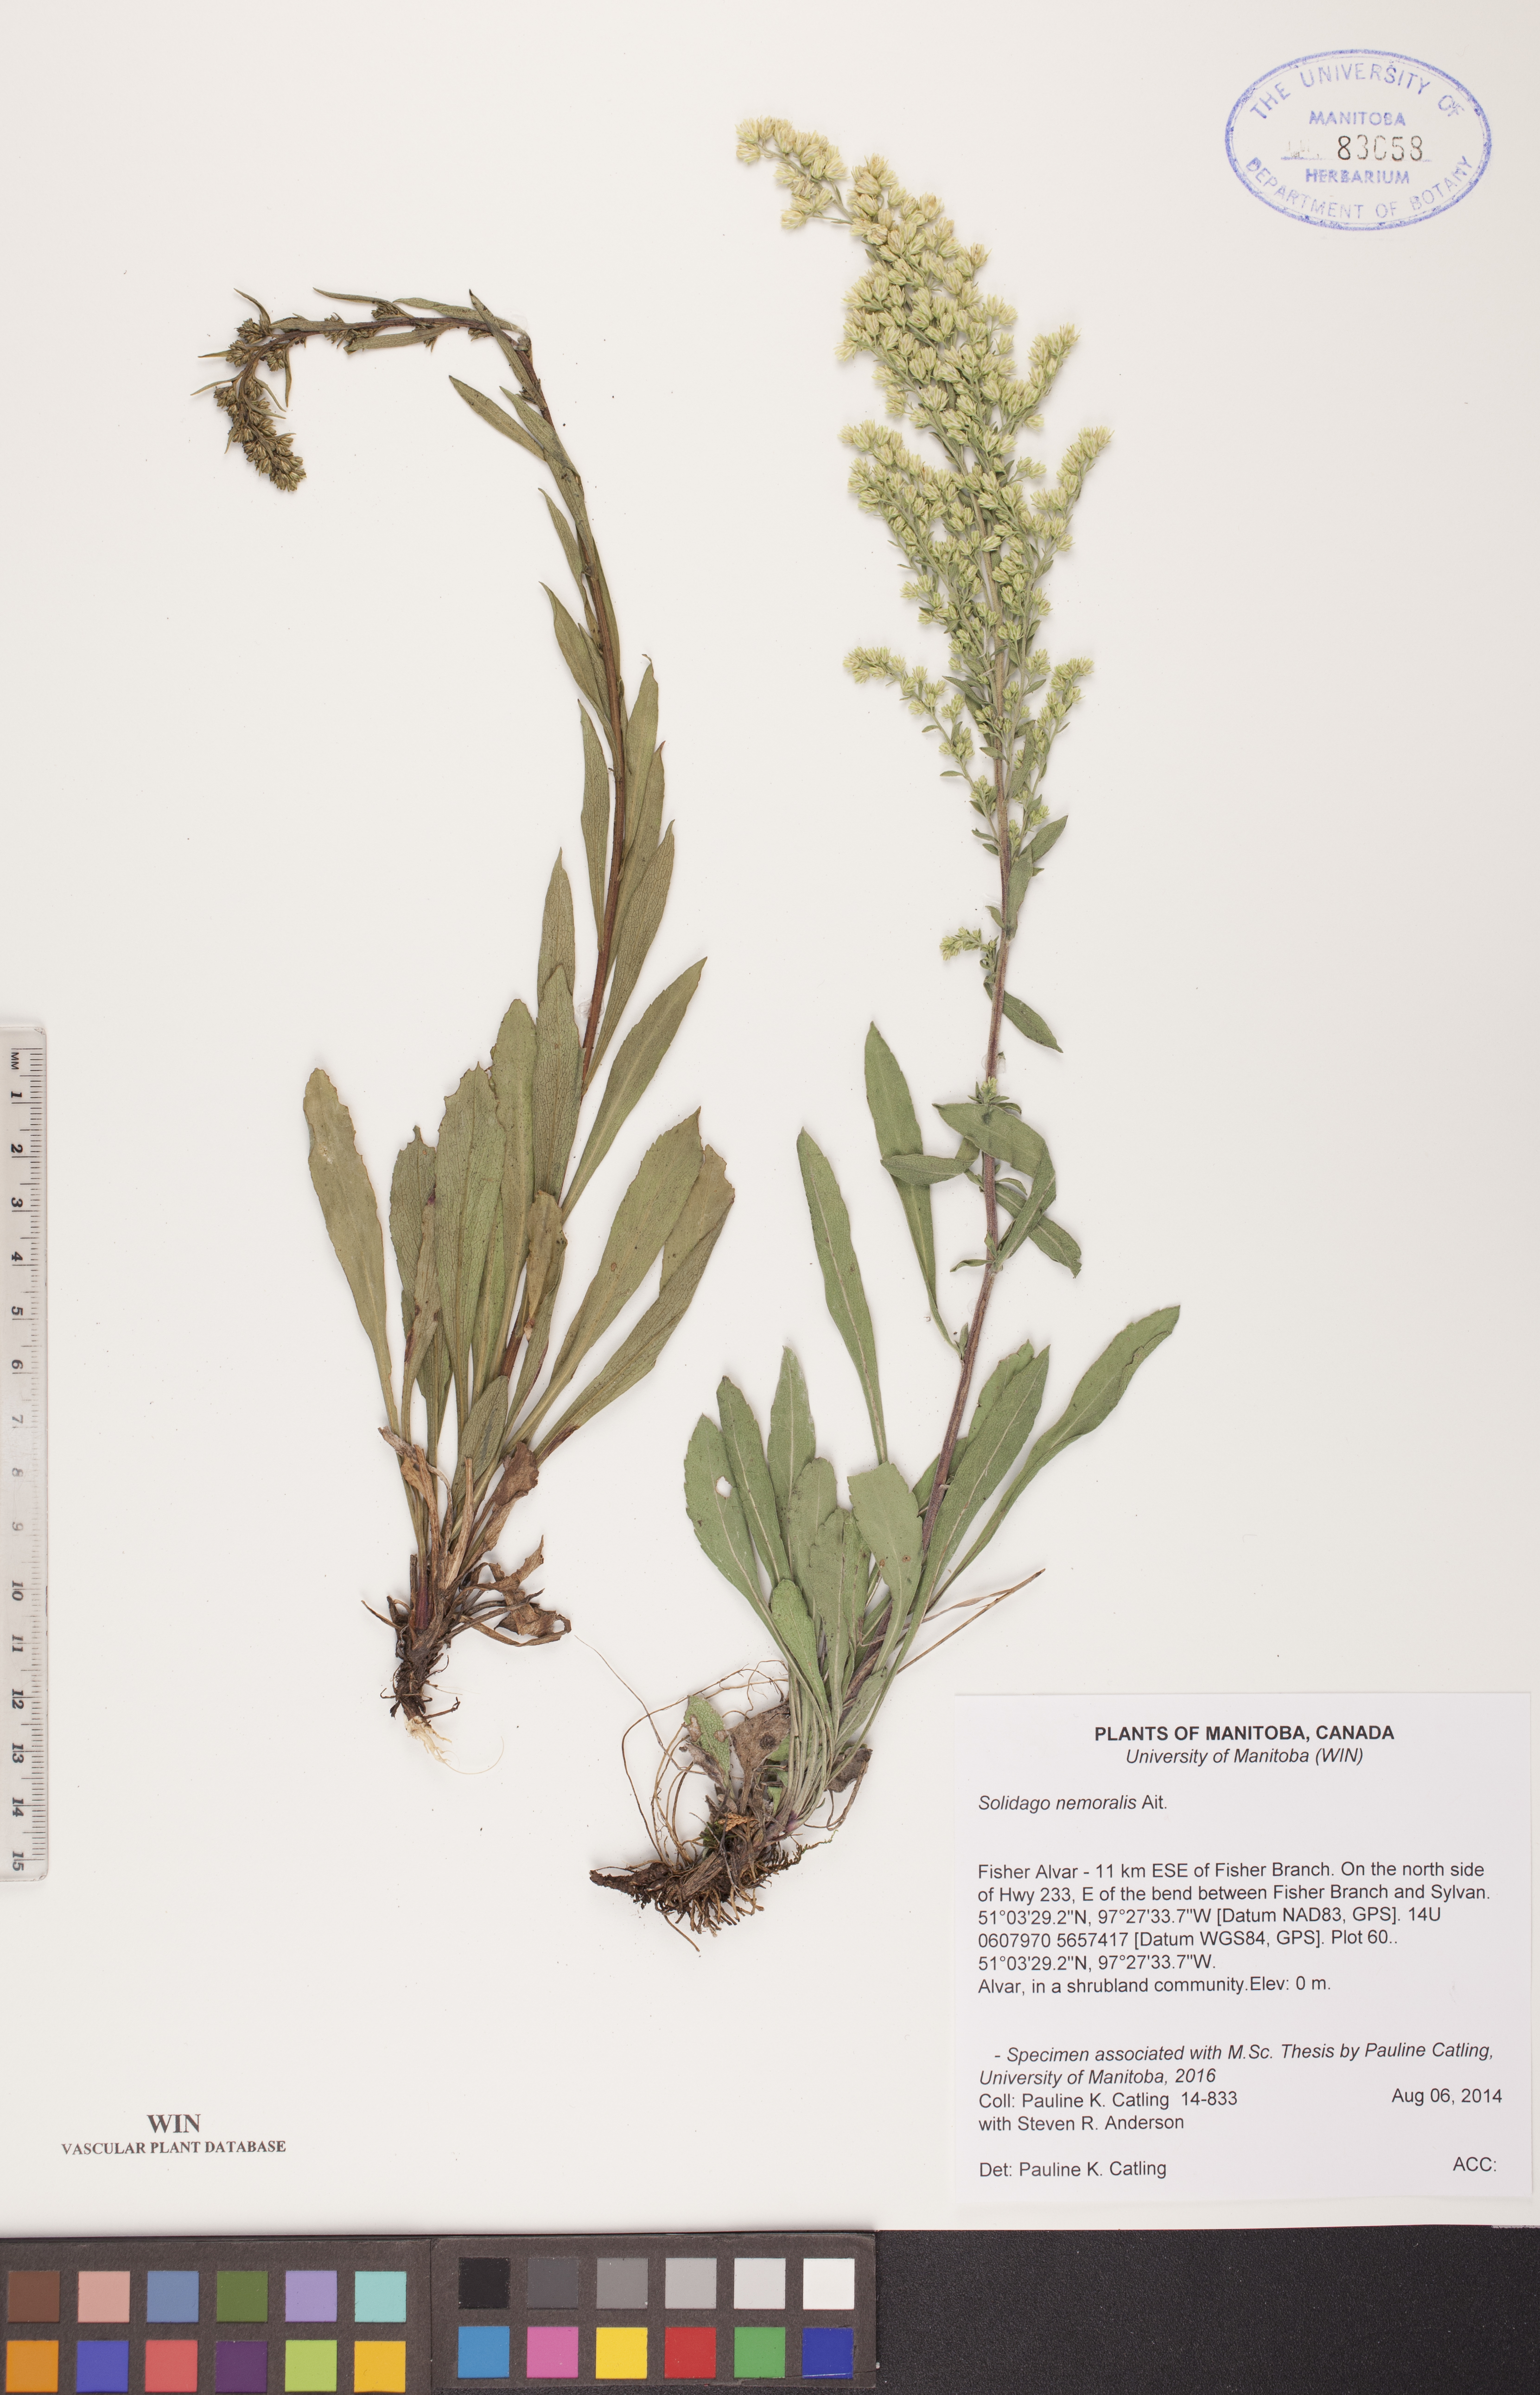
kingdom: Plantae
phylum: Tracheophyta
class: Magnoliopsida
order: Asterales
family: Asteraceae
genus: Solidago
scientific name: Solidago nemoralis
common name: Grey goldenrod
